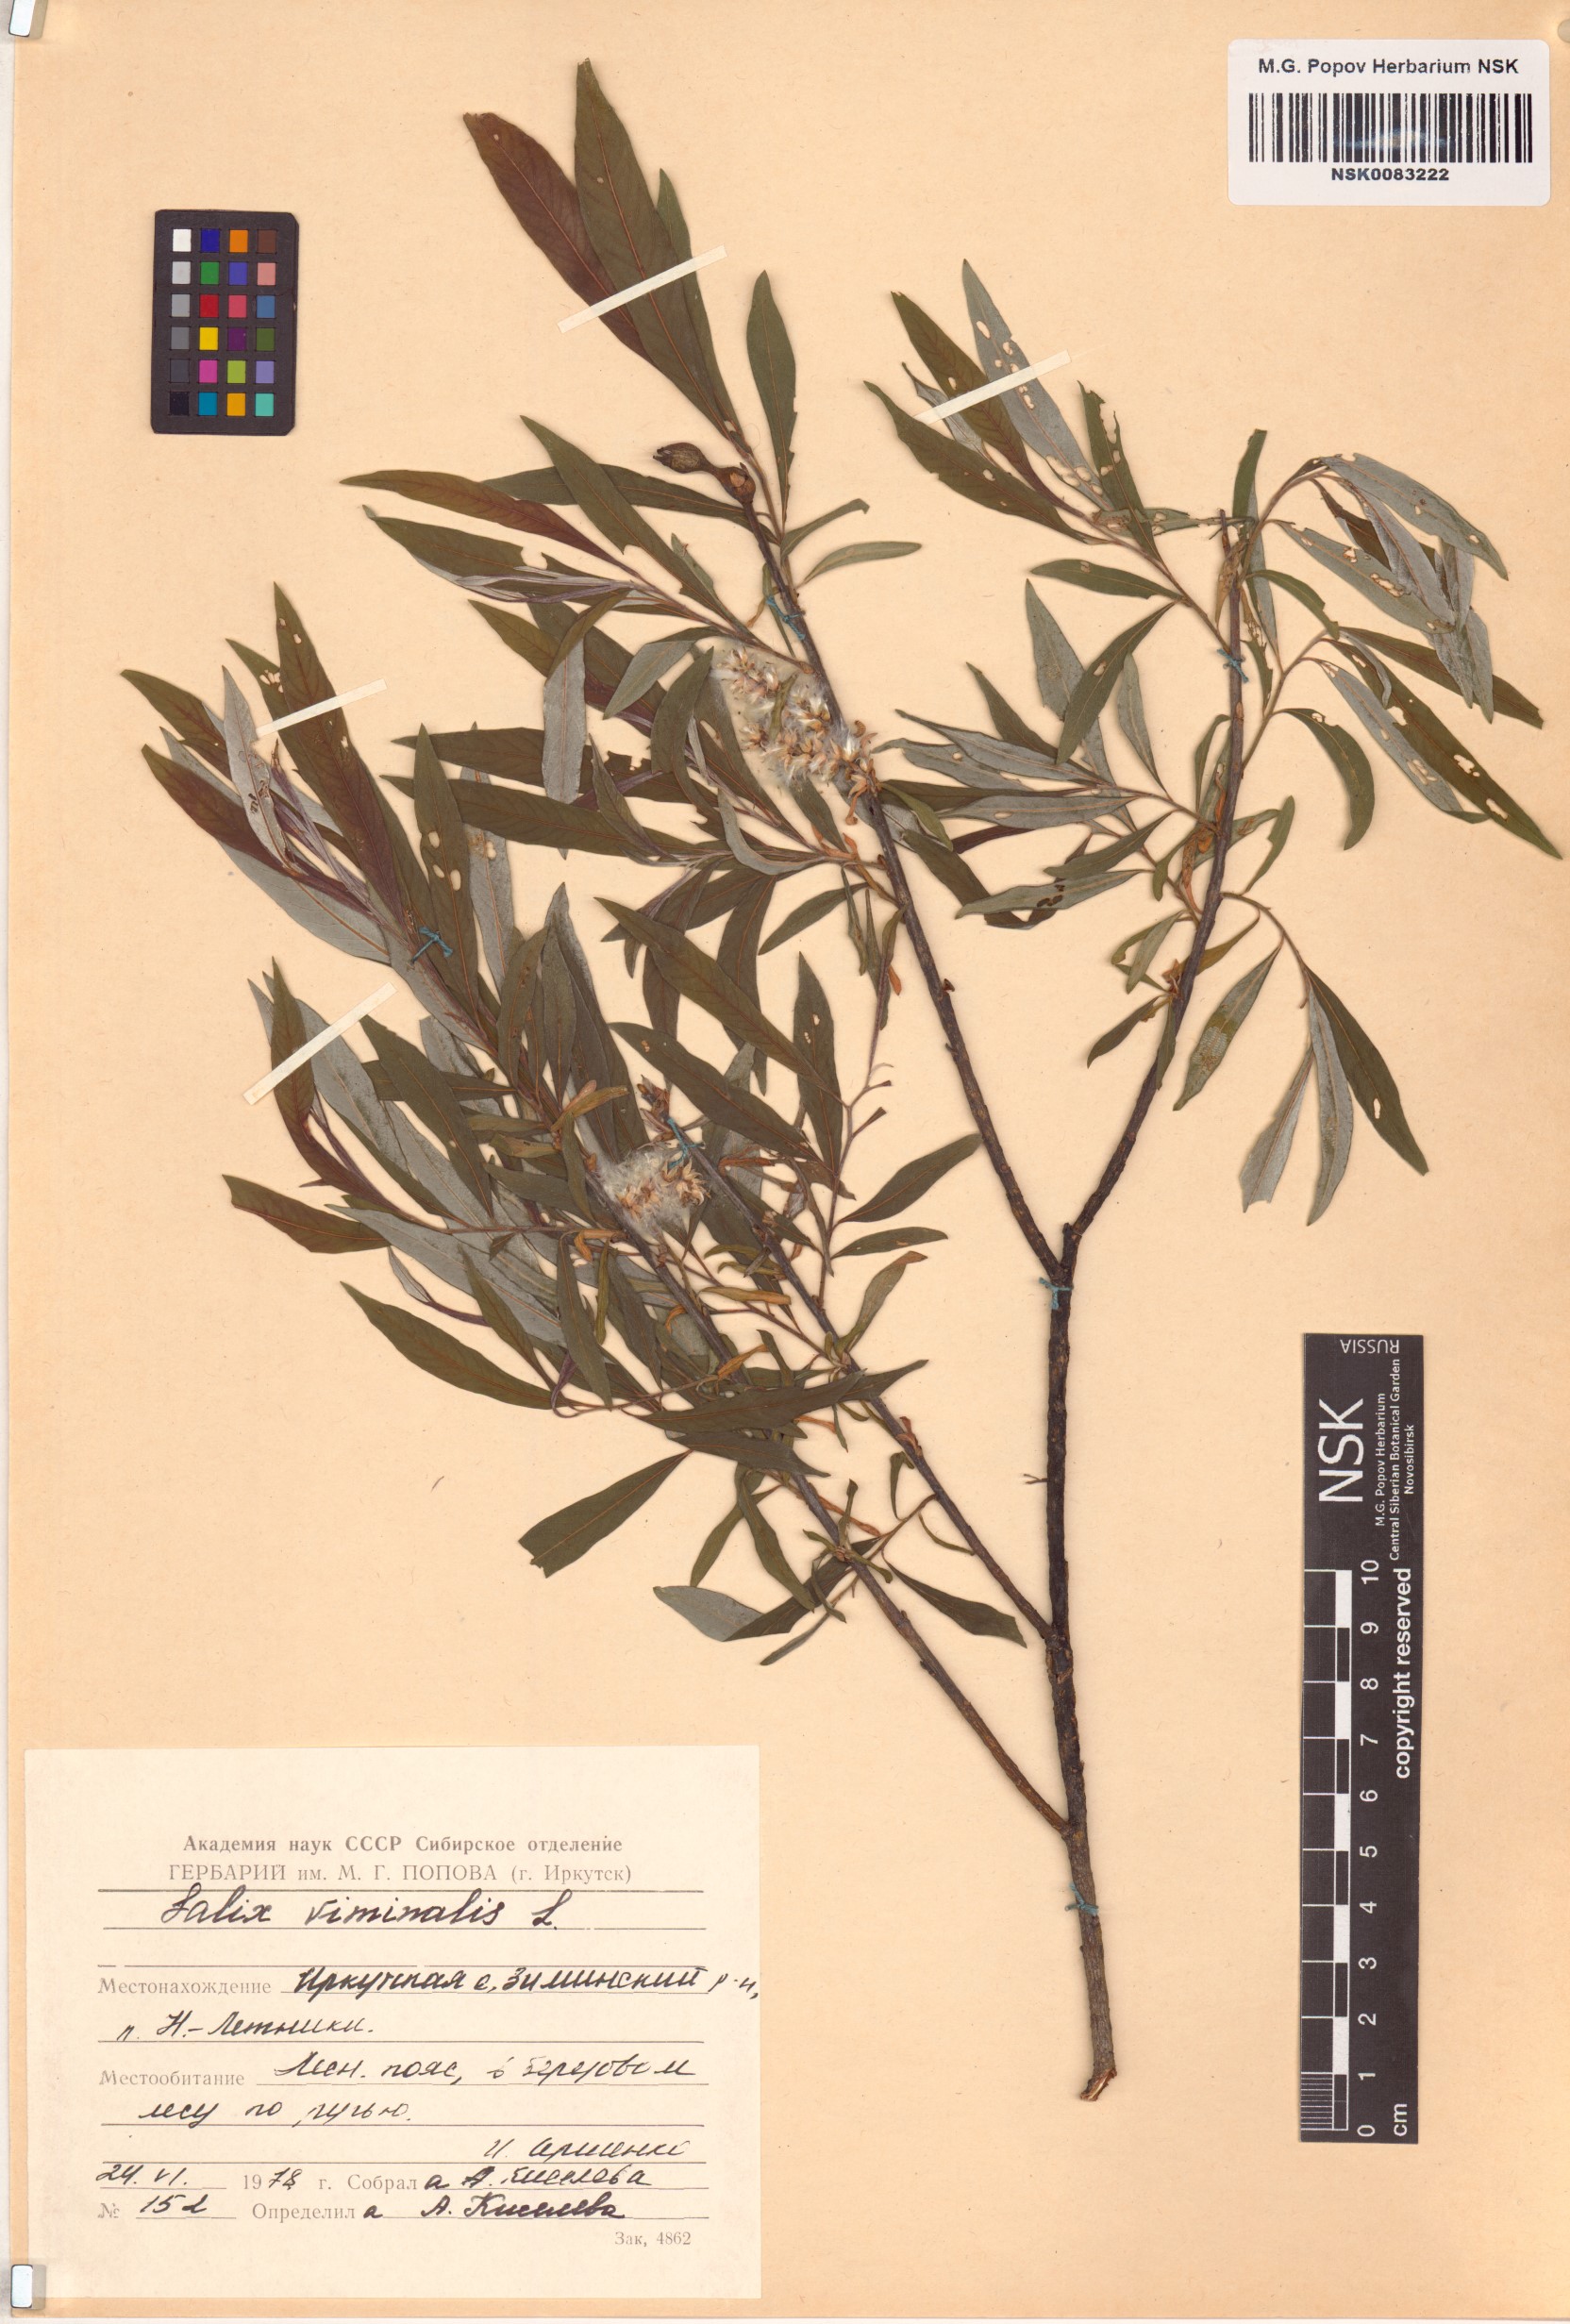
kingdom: Plantae
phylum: Tracheophyta
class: Magnoliopsida
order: Malpighiales
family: Salicaceae
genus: Salix
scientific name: Salix viminalis
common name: Osier
